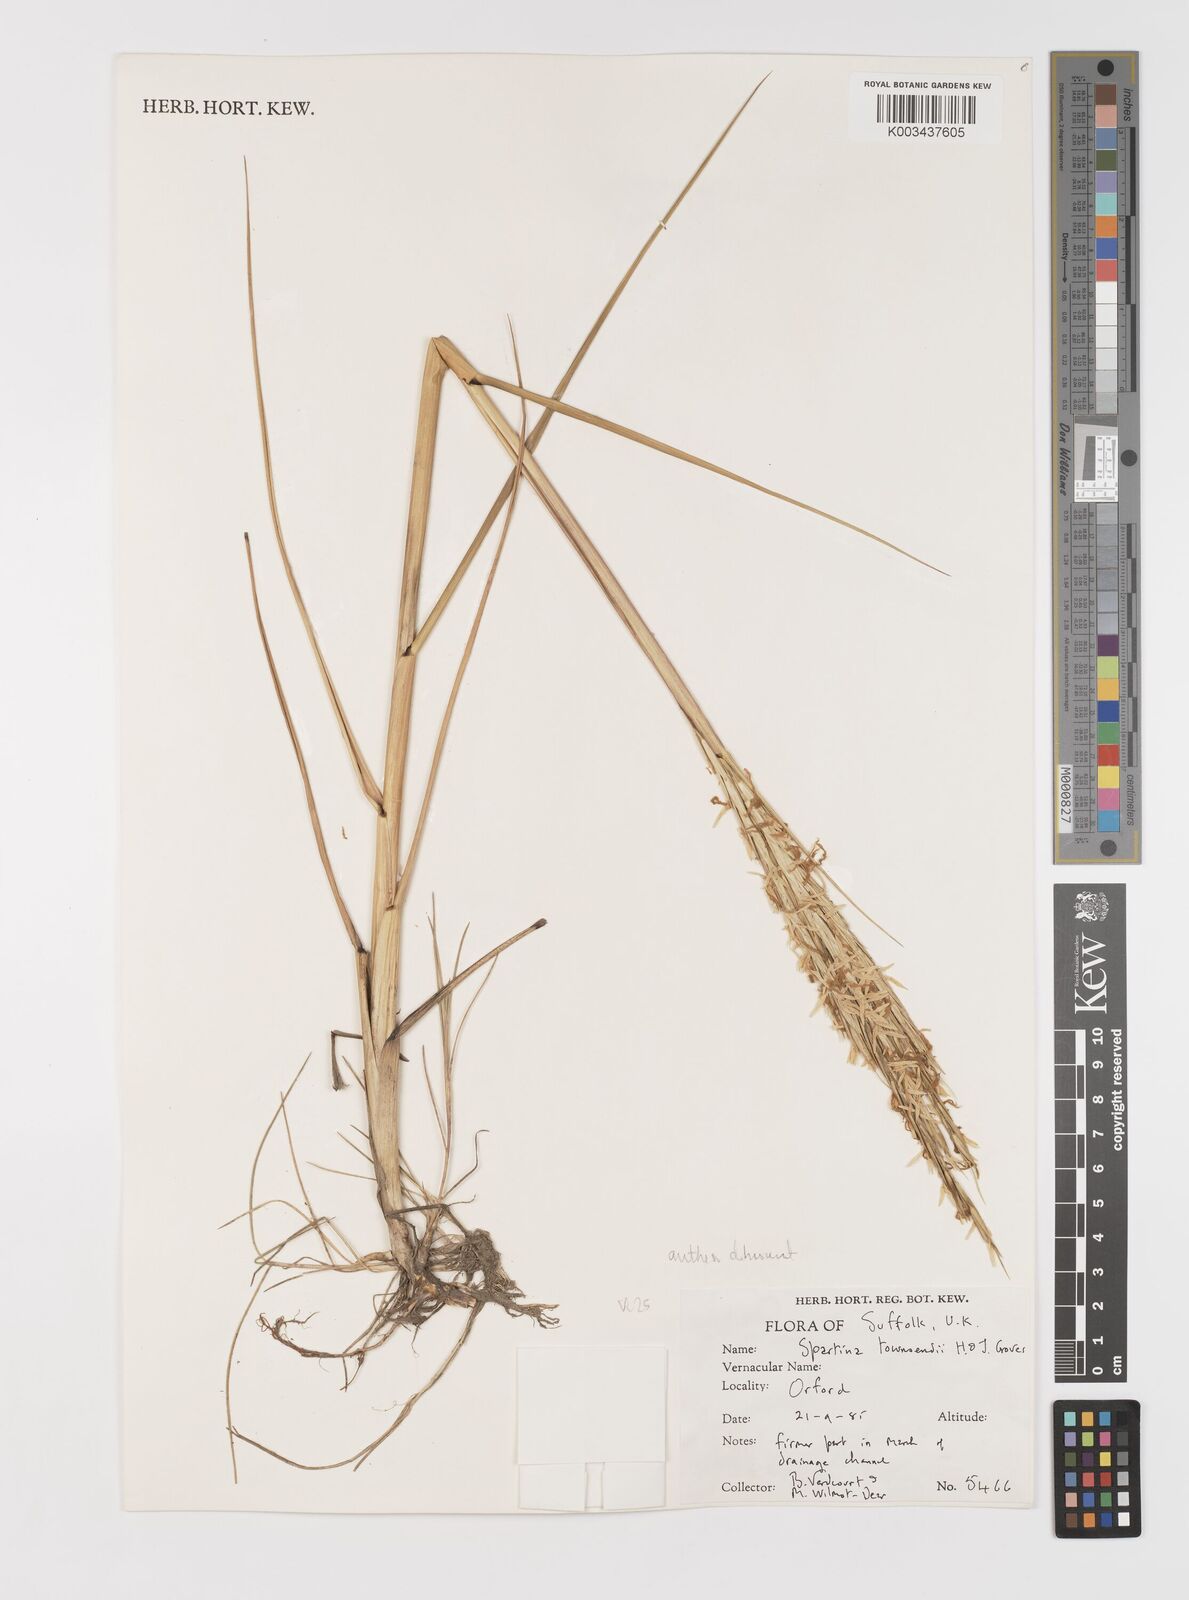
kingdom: Plantae
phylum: Tracheophyta
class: Liliopsida
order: Poales
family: Poaceae
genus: Sporobolus
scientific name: Sporobolus anglicus
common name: English cordgrass
